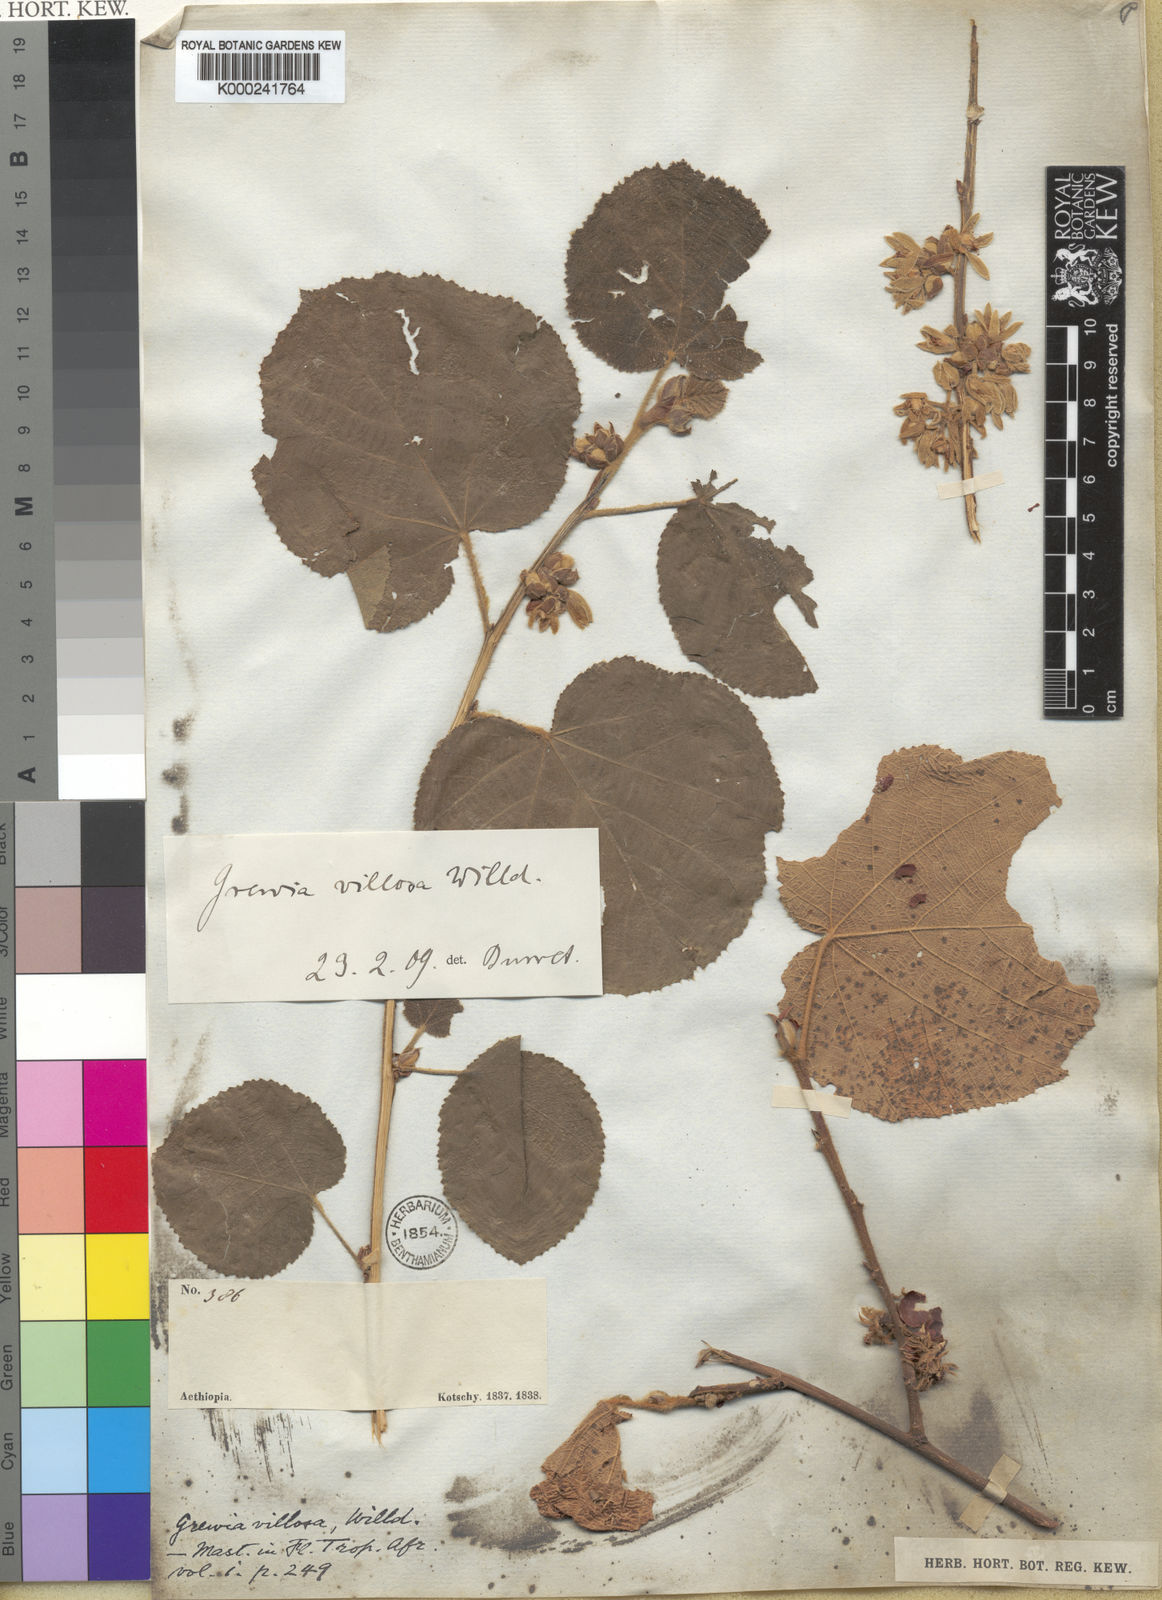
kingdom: Plantae
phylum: Tracheophyta
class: Magnoliopsida
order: Malvales
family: Malvaceae
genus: Grewia
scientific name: Grewia villosa
